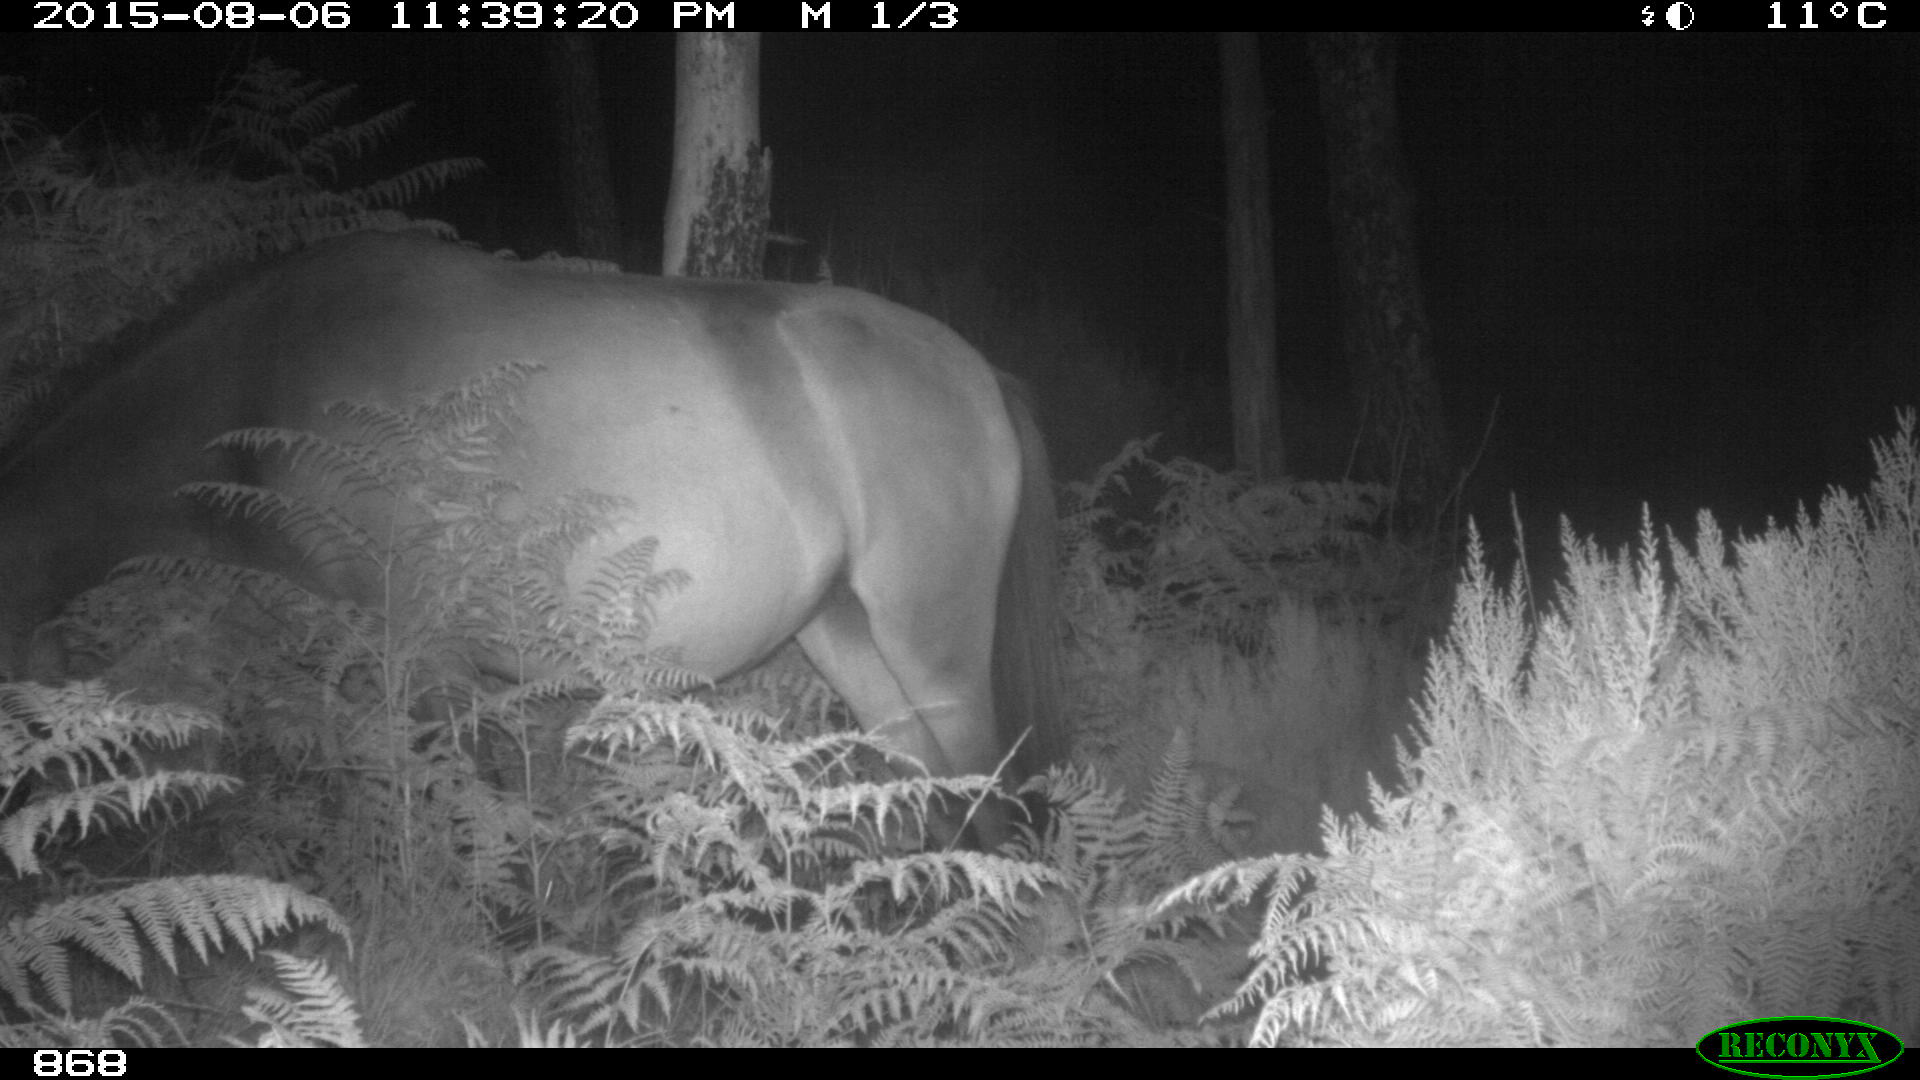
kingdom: Animalia
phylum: Chordata
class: Mammalia
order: Perissodactyla
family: Equidae
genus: Equus
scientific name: Equus caballus
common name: Horse
